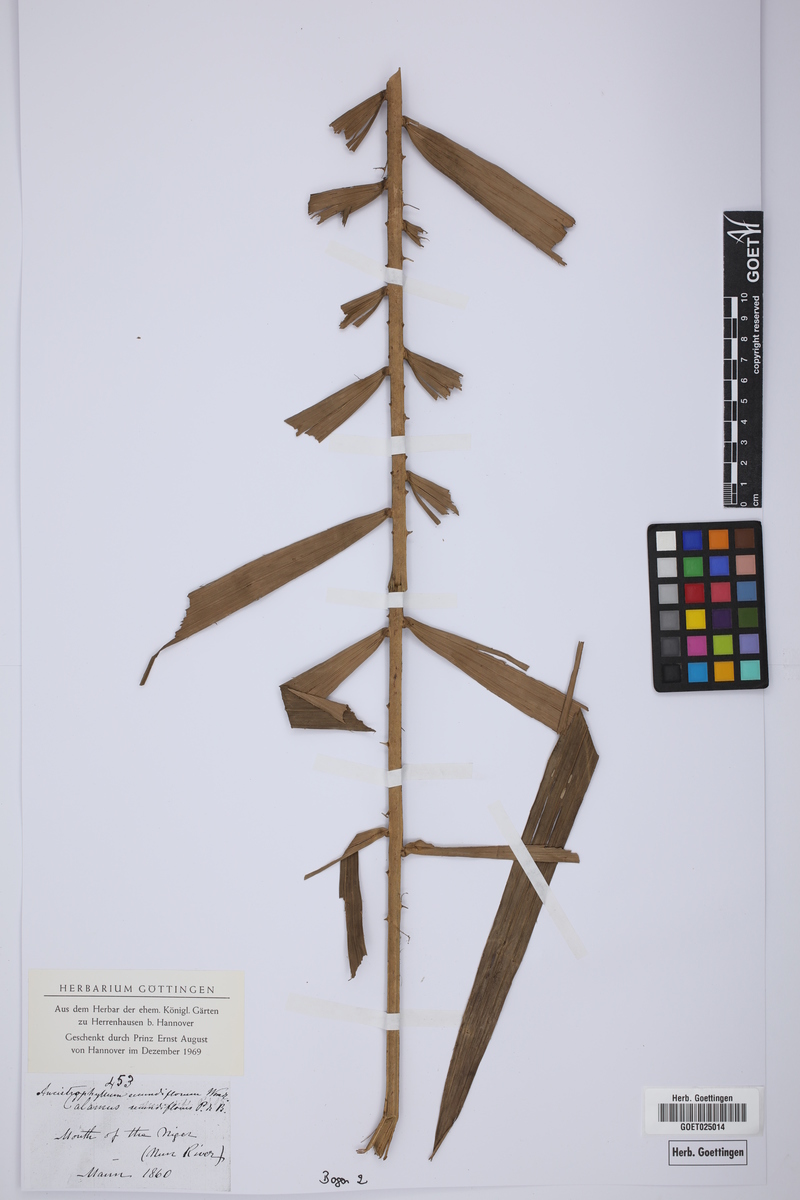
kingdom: Plantae
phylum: Tracheophyta
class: Liliopsida
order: Arecales
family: Arecaceae
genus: Laccosperma
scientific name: Laccosperma secundiflorum
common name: Rattan
